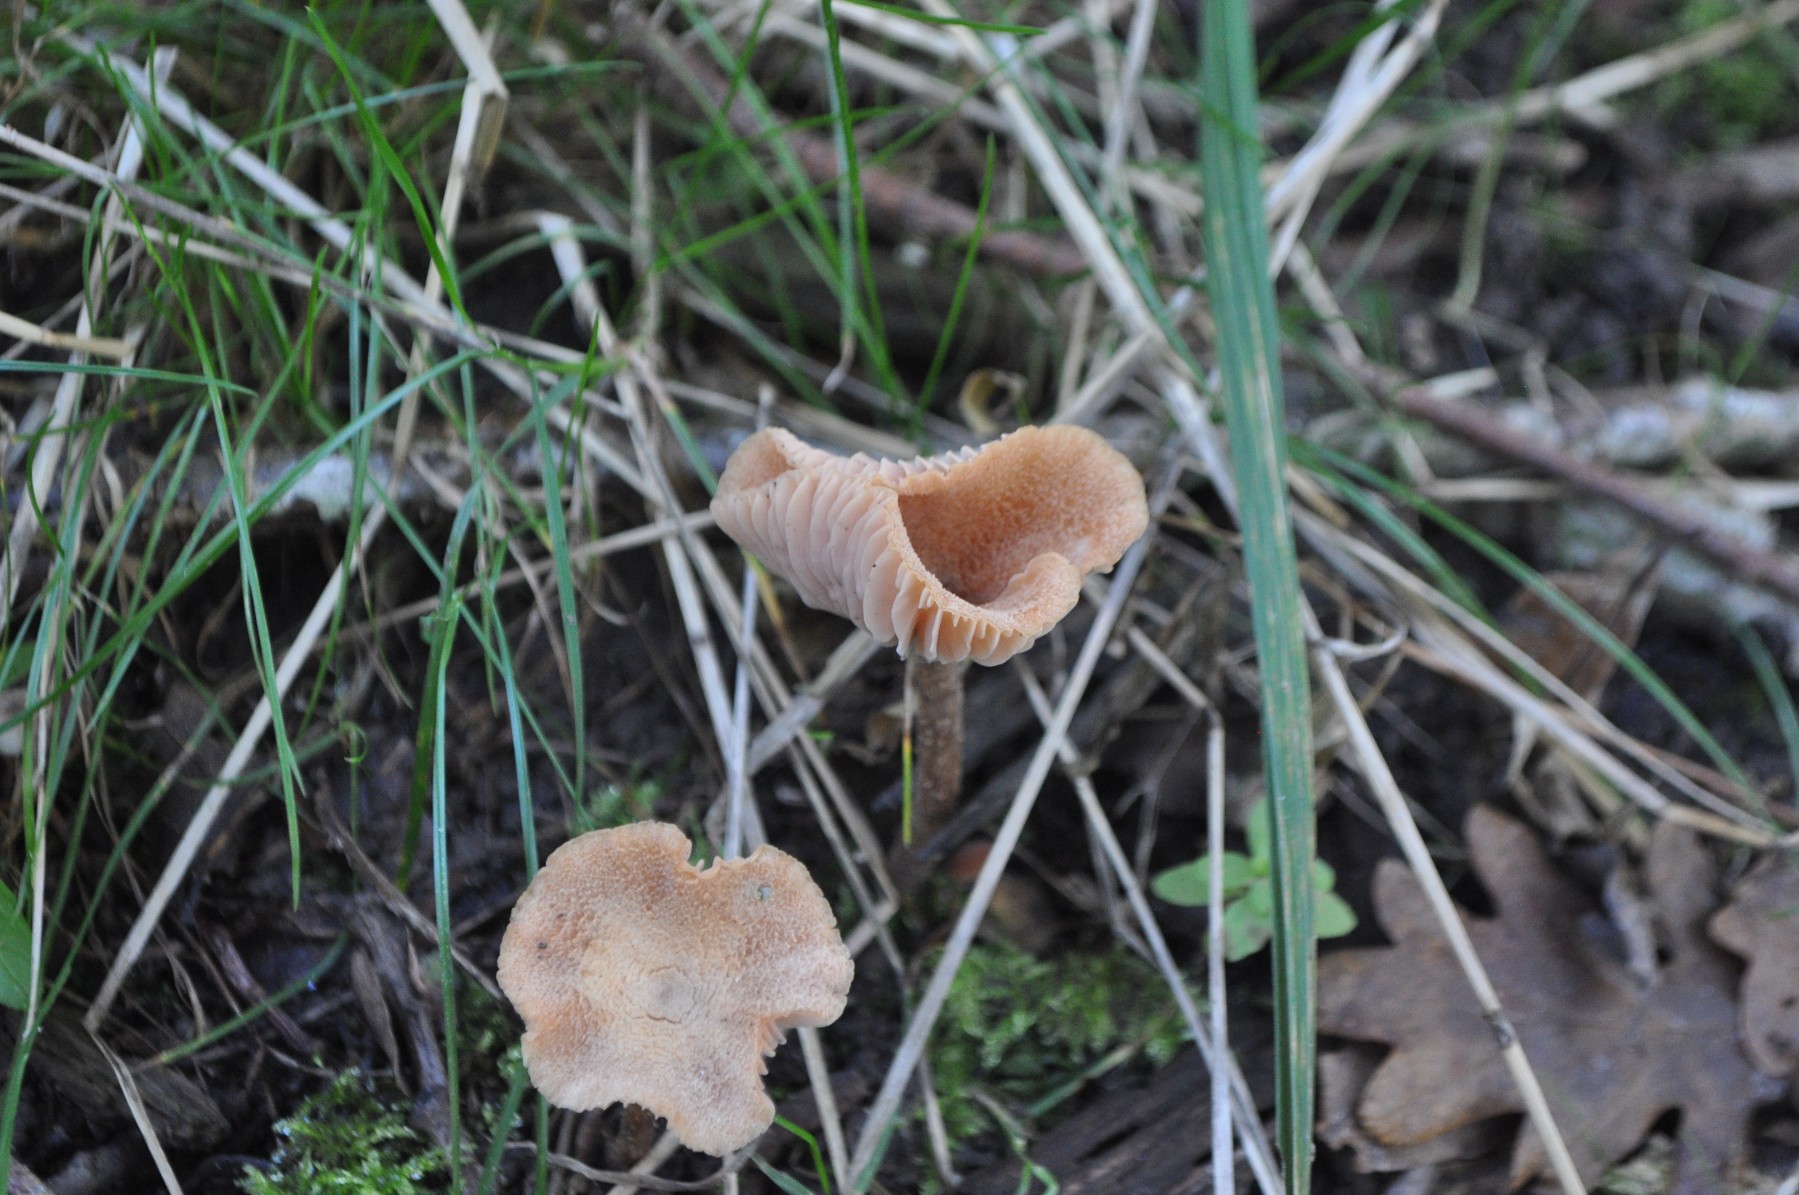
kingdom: Fungi
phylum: Basidiomycota
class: Agaricomycetes
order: Agaricales
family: Hydnangiaceae
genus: Laccaria
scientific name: Laccaria
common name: ametysthat
